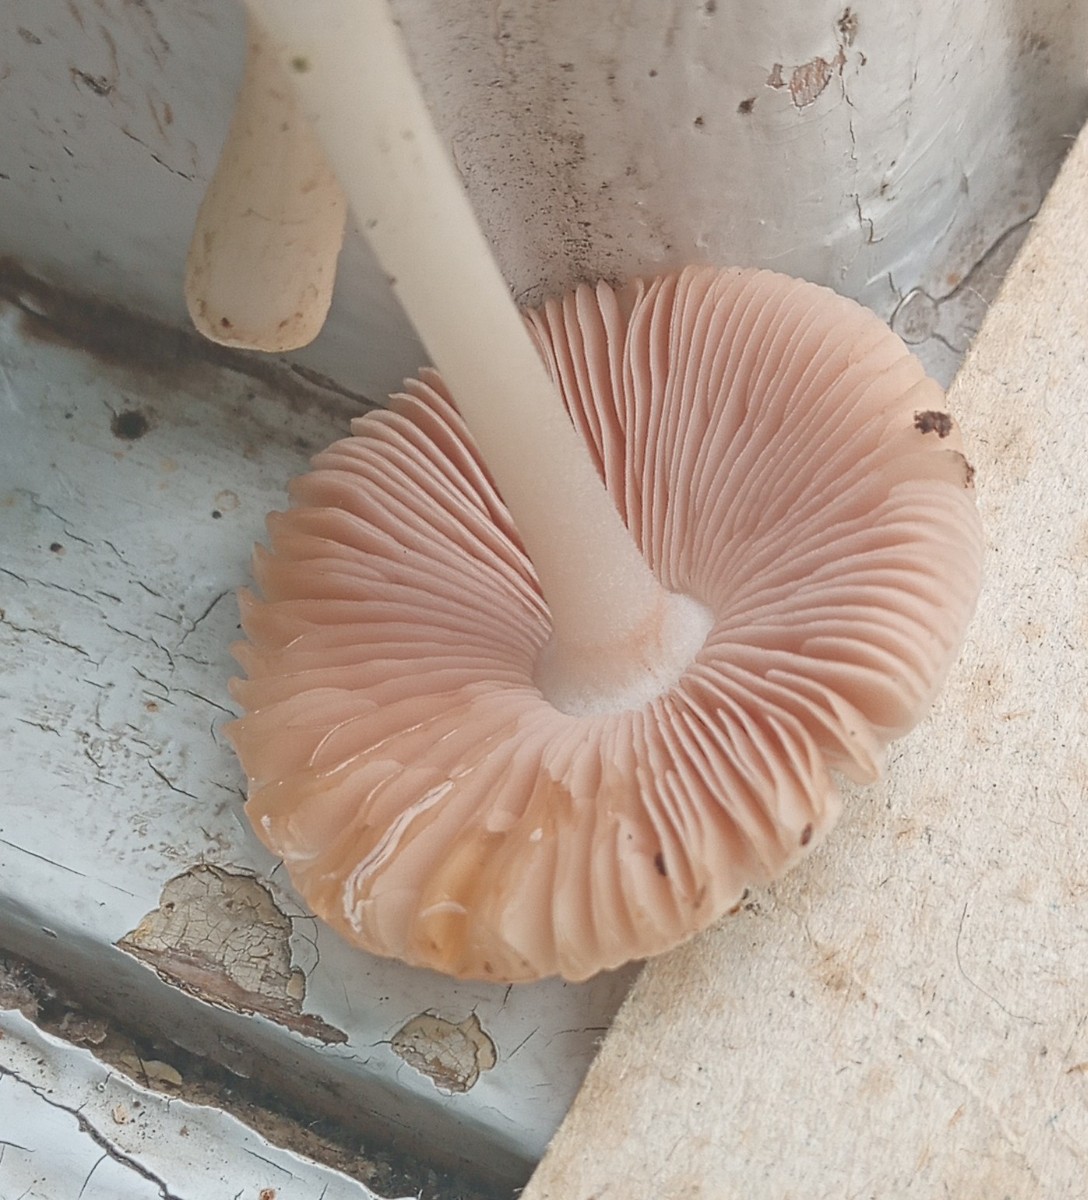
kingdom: Fungi
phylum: Basidiomycota
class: Agaricomycetes
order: Agaricales
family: Pluteaceae
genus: Volvariella
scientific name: Volvariella murinella
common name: musegrå posesvamp
